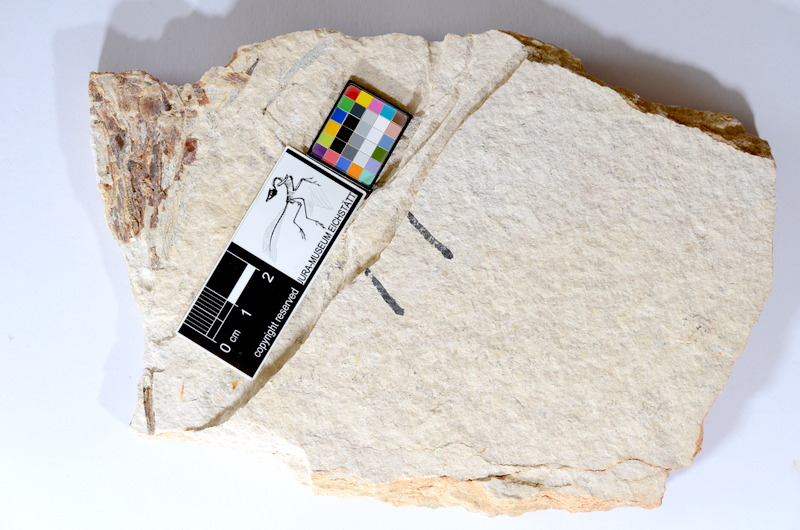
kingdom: Animalia
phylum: Chordata
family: Aspidorhynchidae
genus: Aspidorhynchus
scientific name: Aspidorhynchus
